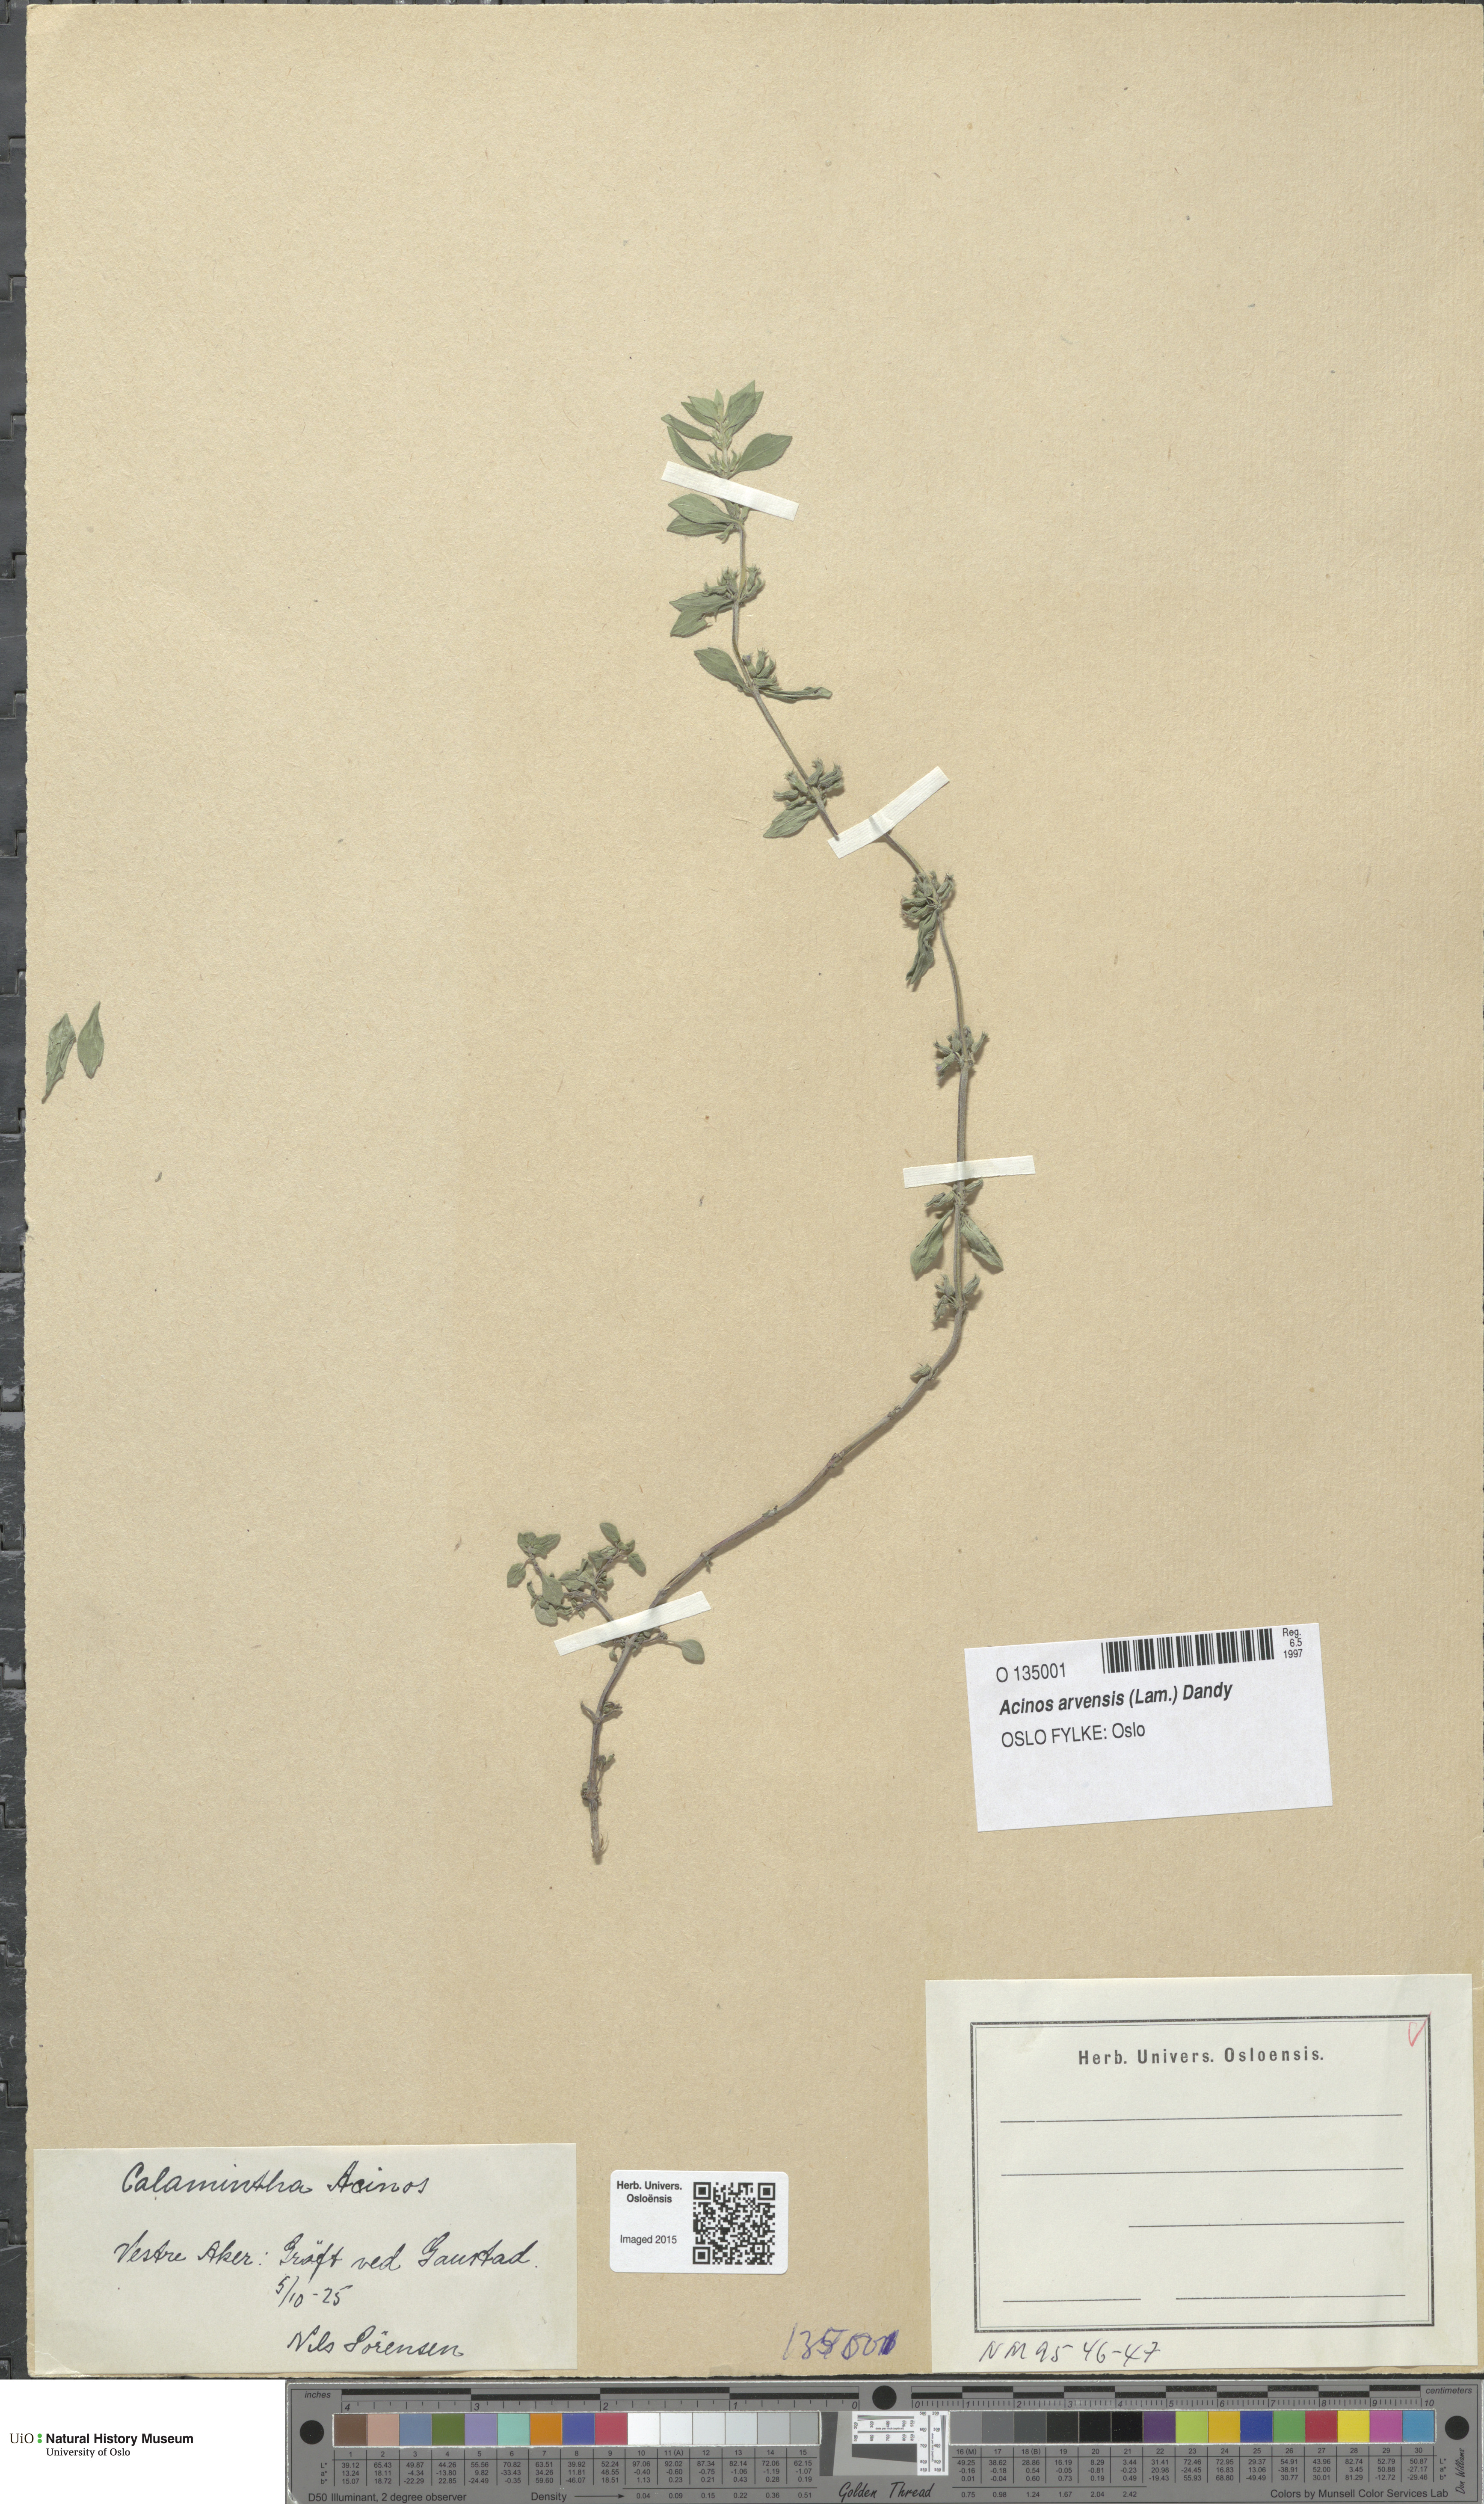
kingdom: Plantae
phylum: Tracheophyta
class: Magnoliopsida
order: Lamiales
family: Lamiaceae
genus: Clinopodium
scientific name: Clinopodium acinos
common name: Basil thyme
